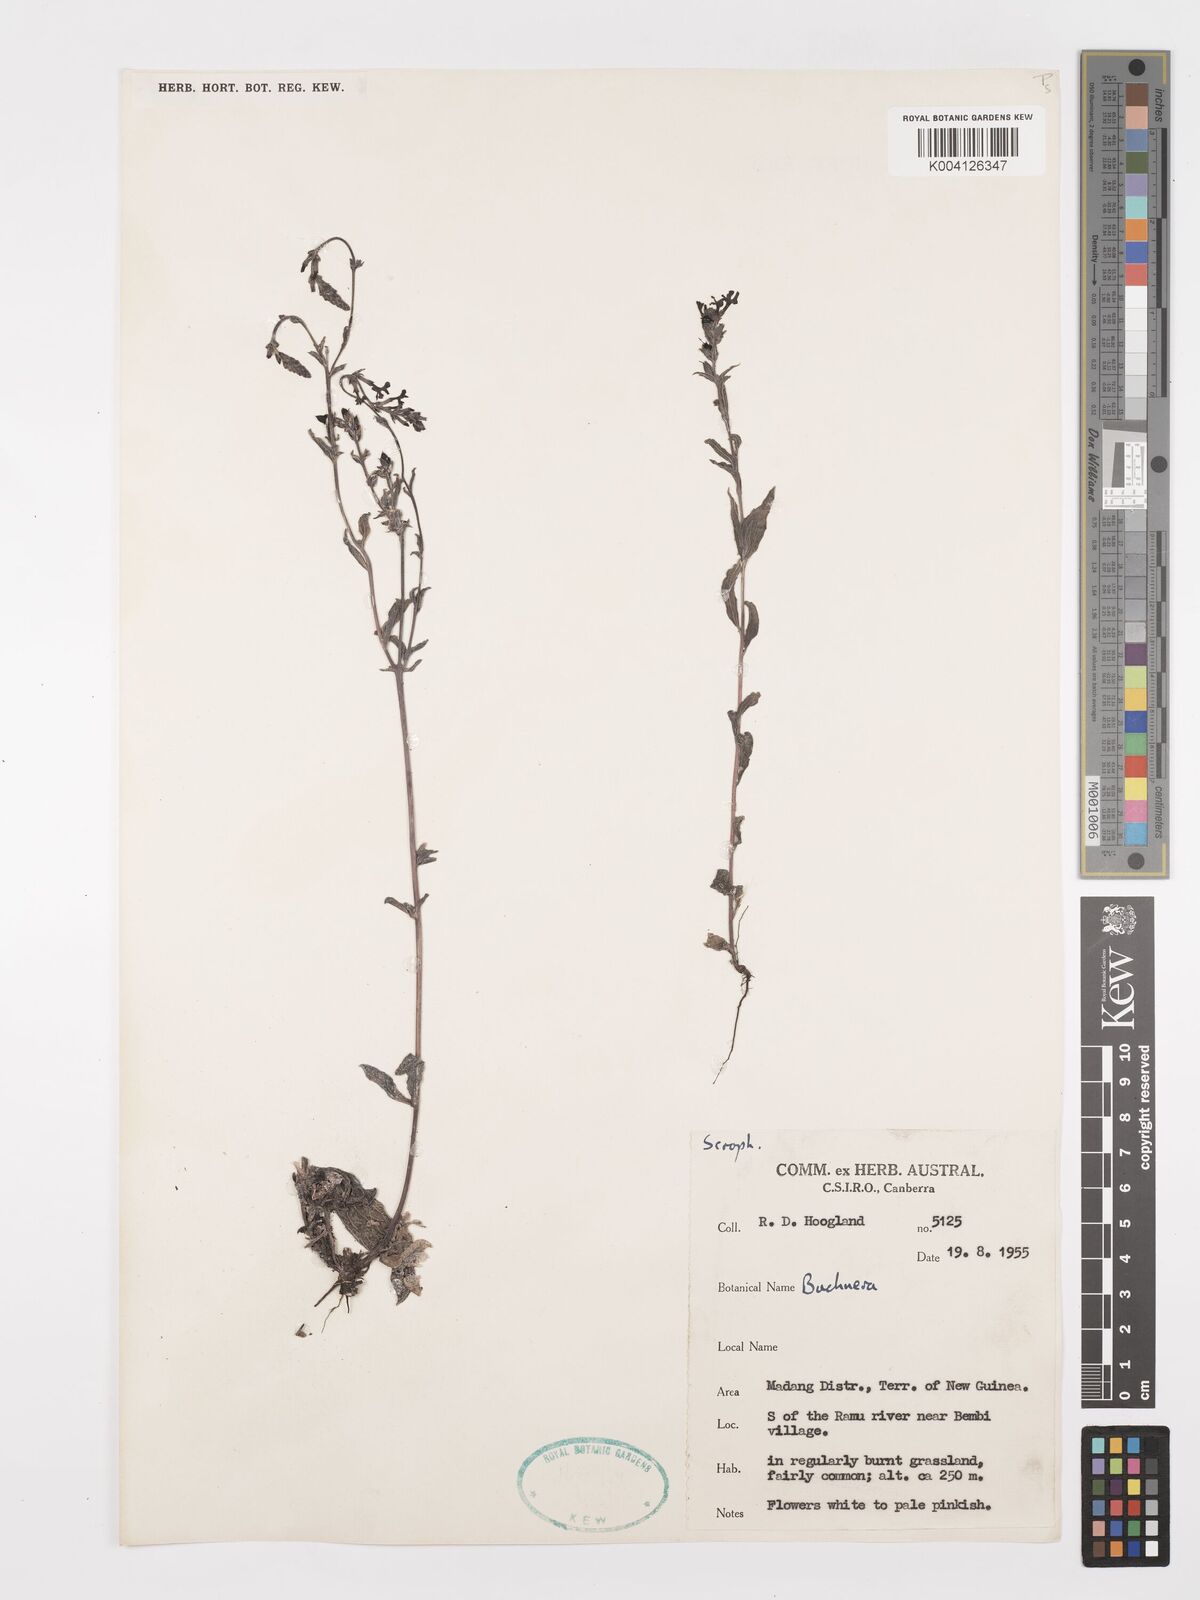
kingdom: Plantae
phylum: Tracheophyta
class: Magnoliopsida
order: Lamiales
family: Orobanchaceae
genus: Buchnera
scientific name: Buchnera tomentosa
